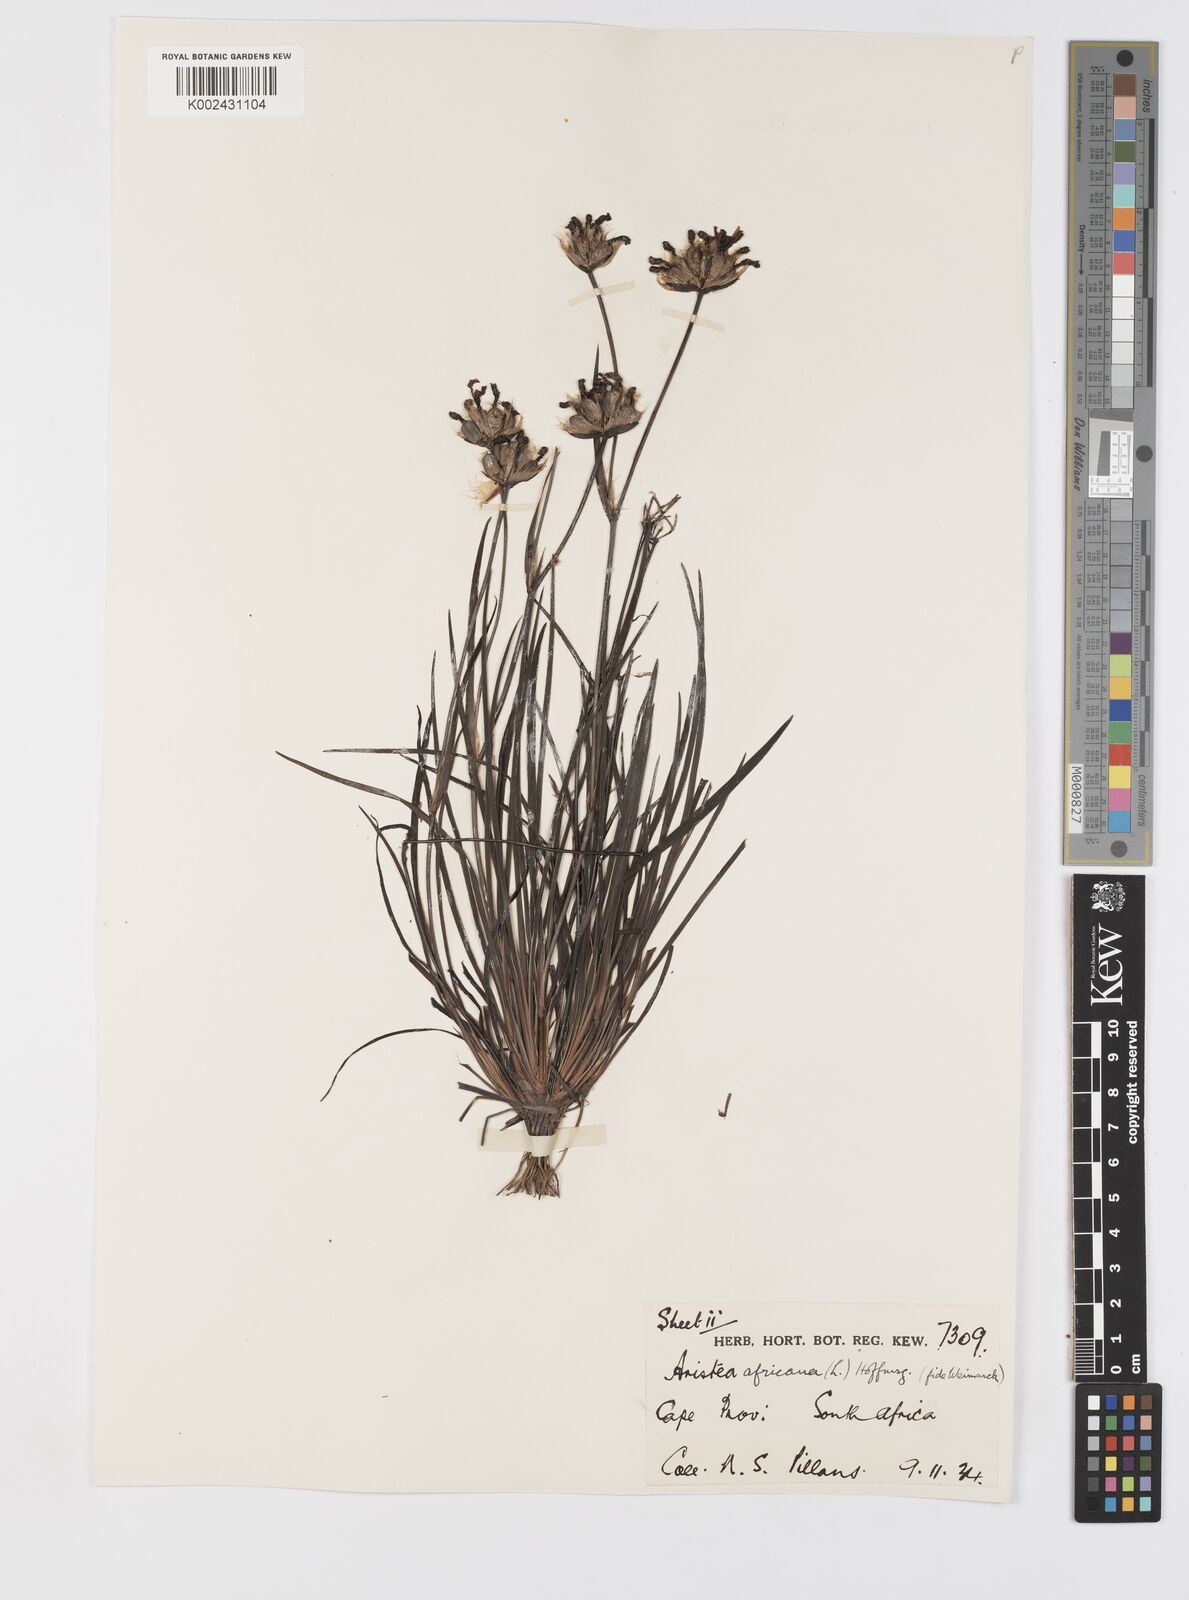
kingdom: Plantae
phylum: Tracheophyta
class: Liliopsida
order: Asparagales
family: Iridaceae
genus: Aristea
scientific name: Aristea africana
